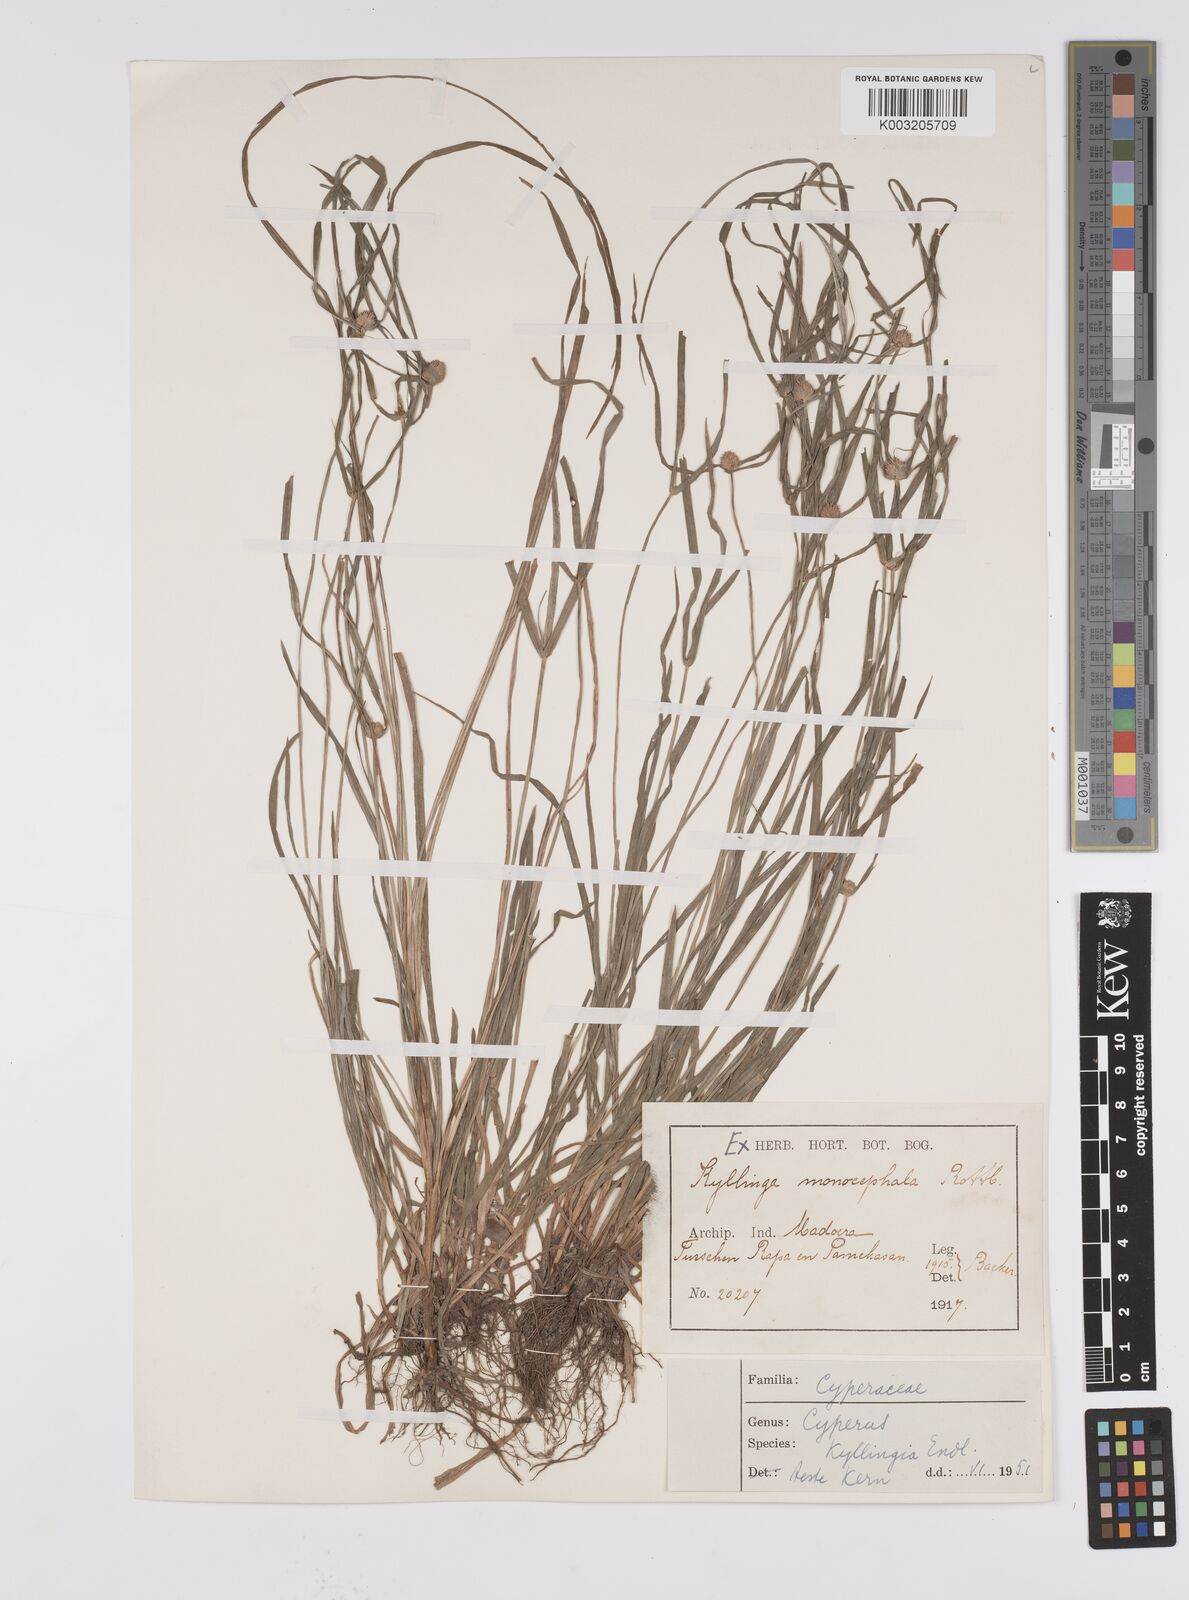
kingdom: Plantae
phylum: Tracheophyta
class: Liliopsida
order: Poales
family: Cyperaceae
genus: Cyperus
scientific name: Cyperus nemoralis
